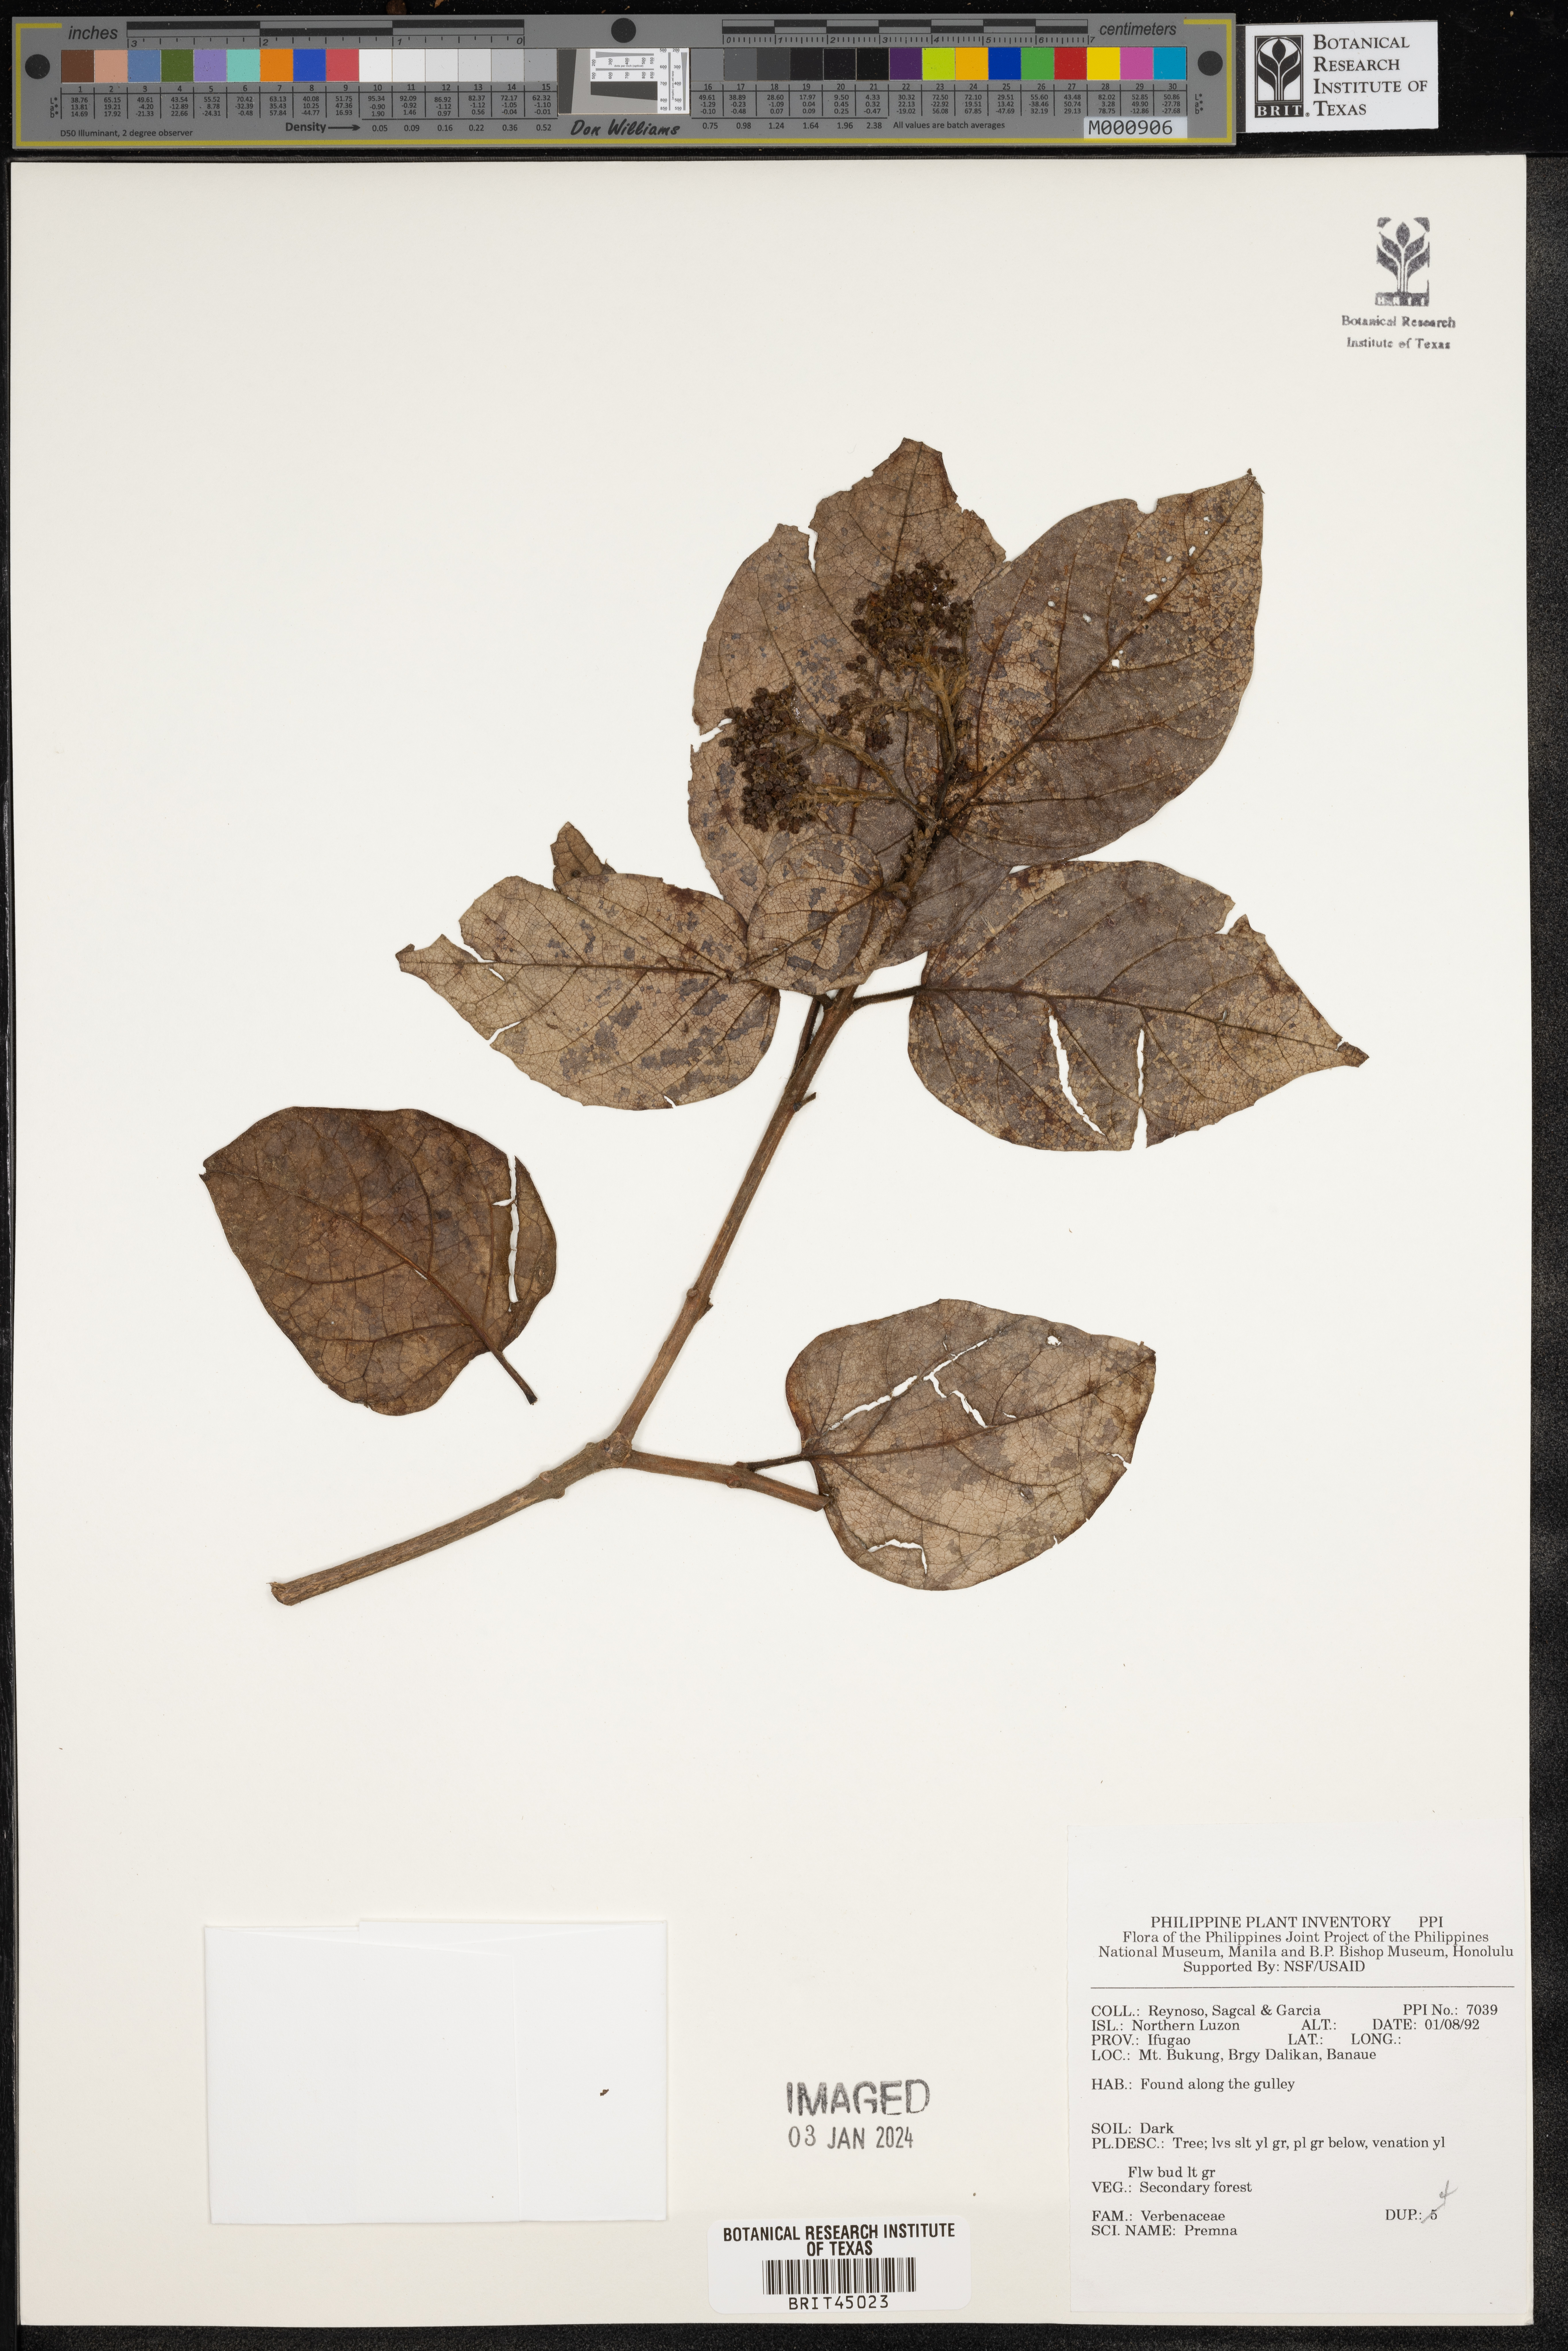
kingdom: Plantae
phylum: Tracheophyta
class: Magnoliopsida
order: Lamiales
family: Lamiaceae
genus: Premna
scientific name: Premna
